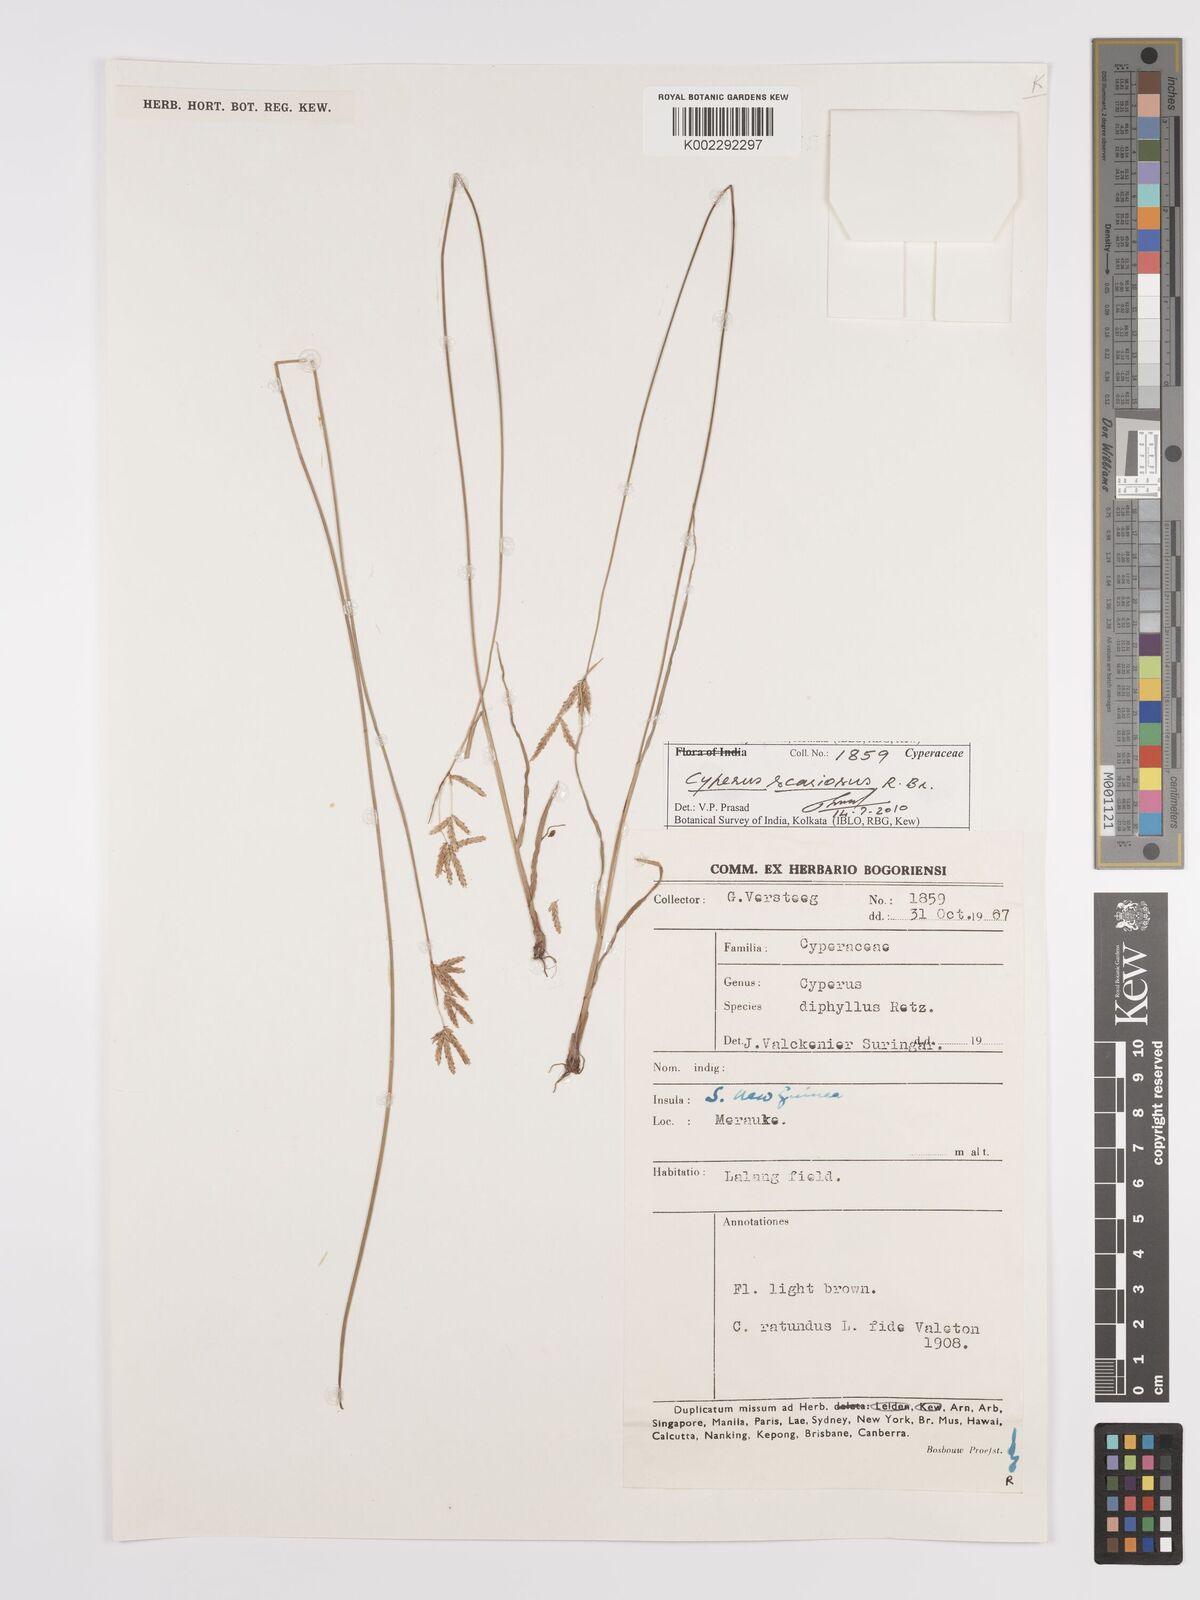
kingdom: Plantae
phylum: Tracheophyta
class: Liliopsida
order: Poales
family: Cyperaceae
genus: Cyperus
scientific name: Cyperus scariosus
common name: Cypriol
